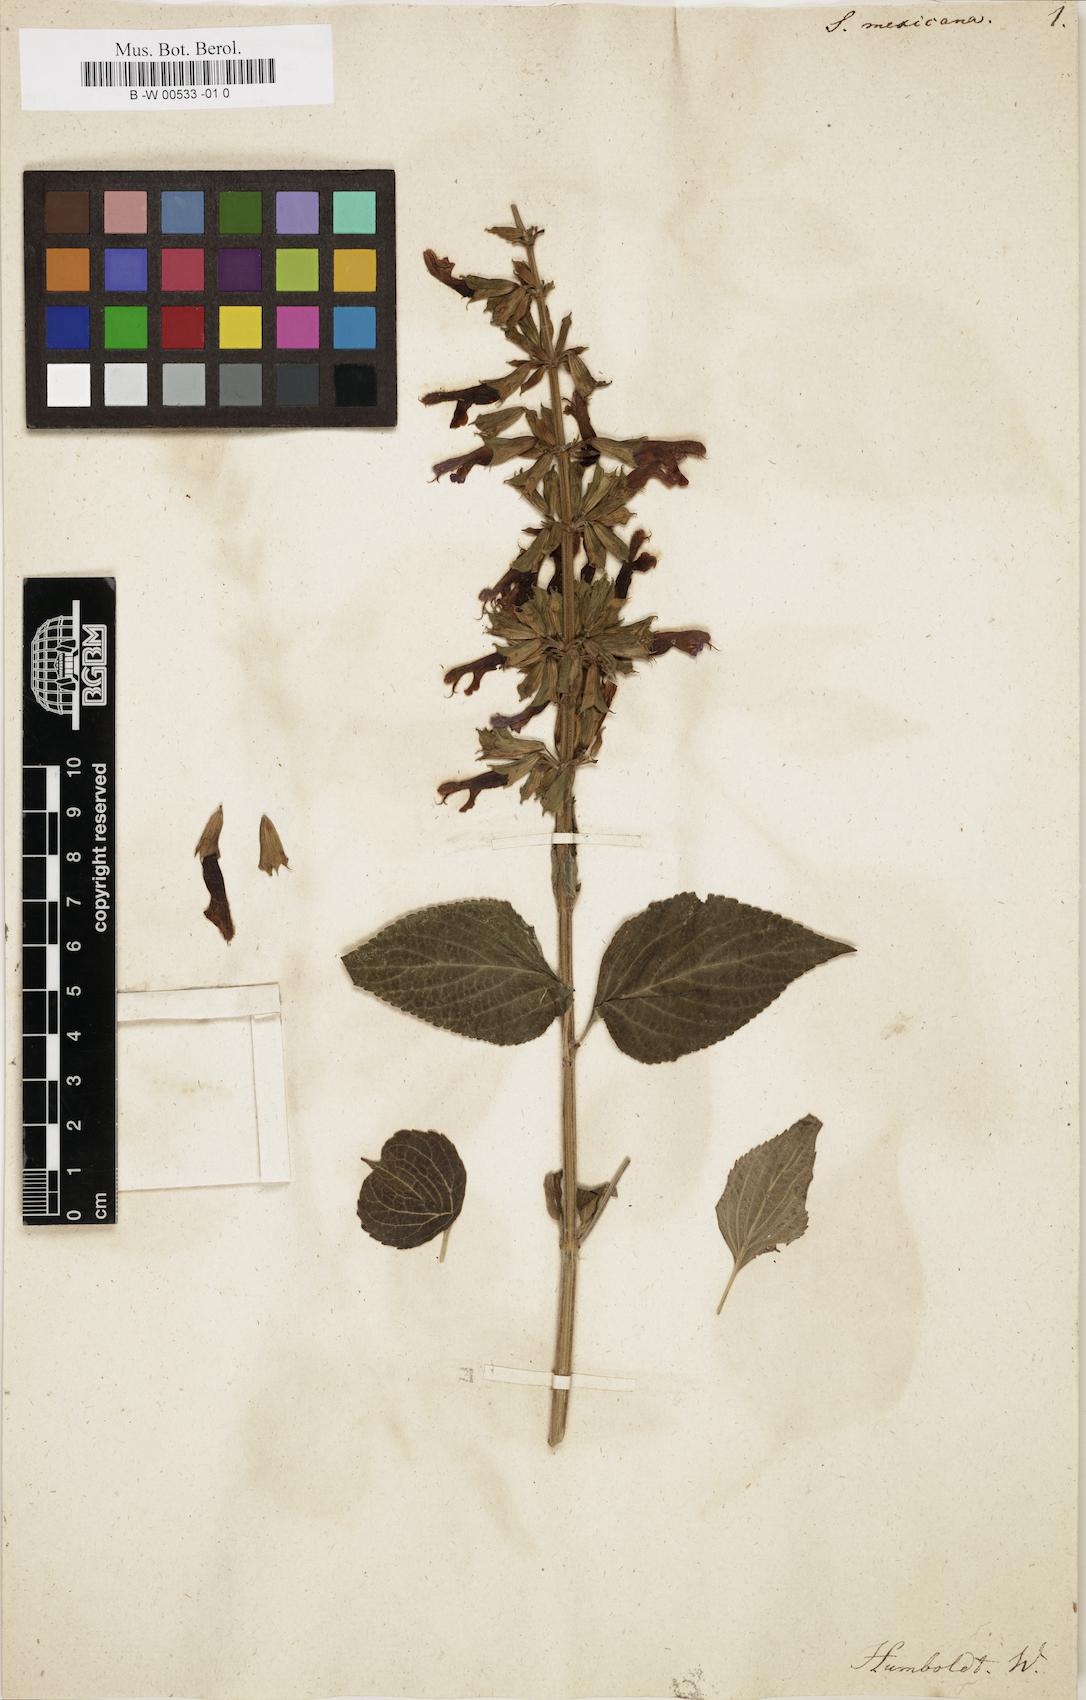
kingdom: Plantae
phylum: Tracheophyta
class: Magnoliopsida
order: Lamiales
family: Lamiaceae
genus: Salvia
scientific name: Salvia mexicana
